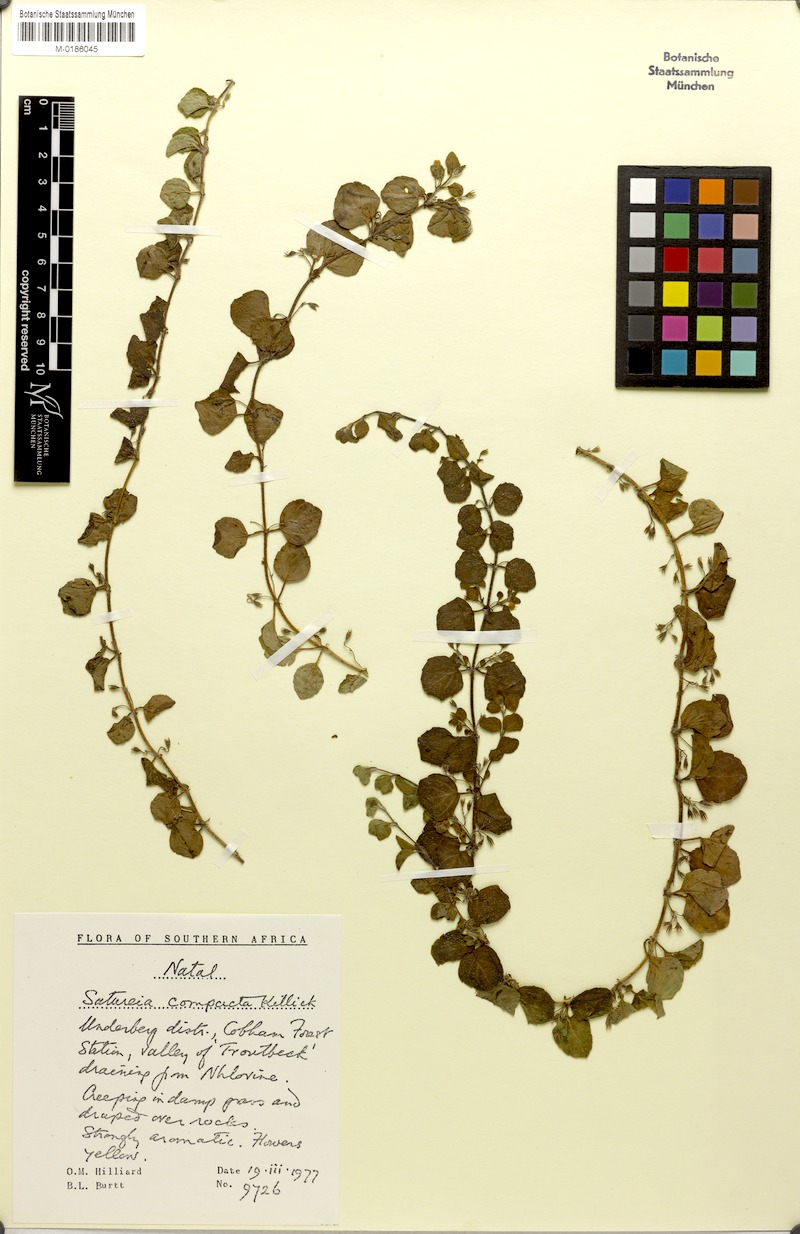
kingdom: Plantae
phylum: Tracheophyta
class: Magnoliopsida
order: Lamiales
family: Lamiaceae
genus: Killickia
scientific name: Killickia lutea
